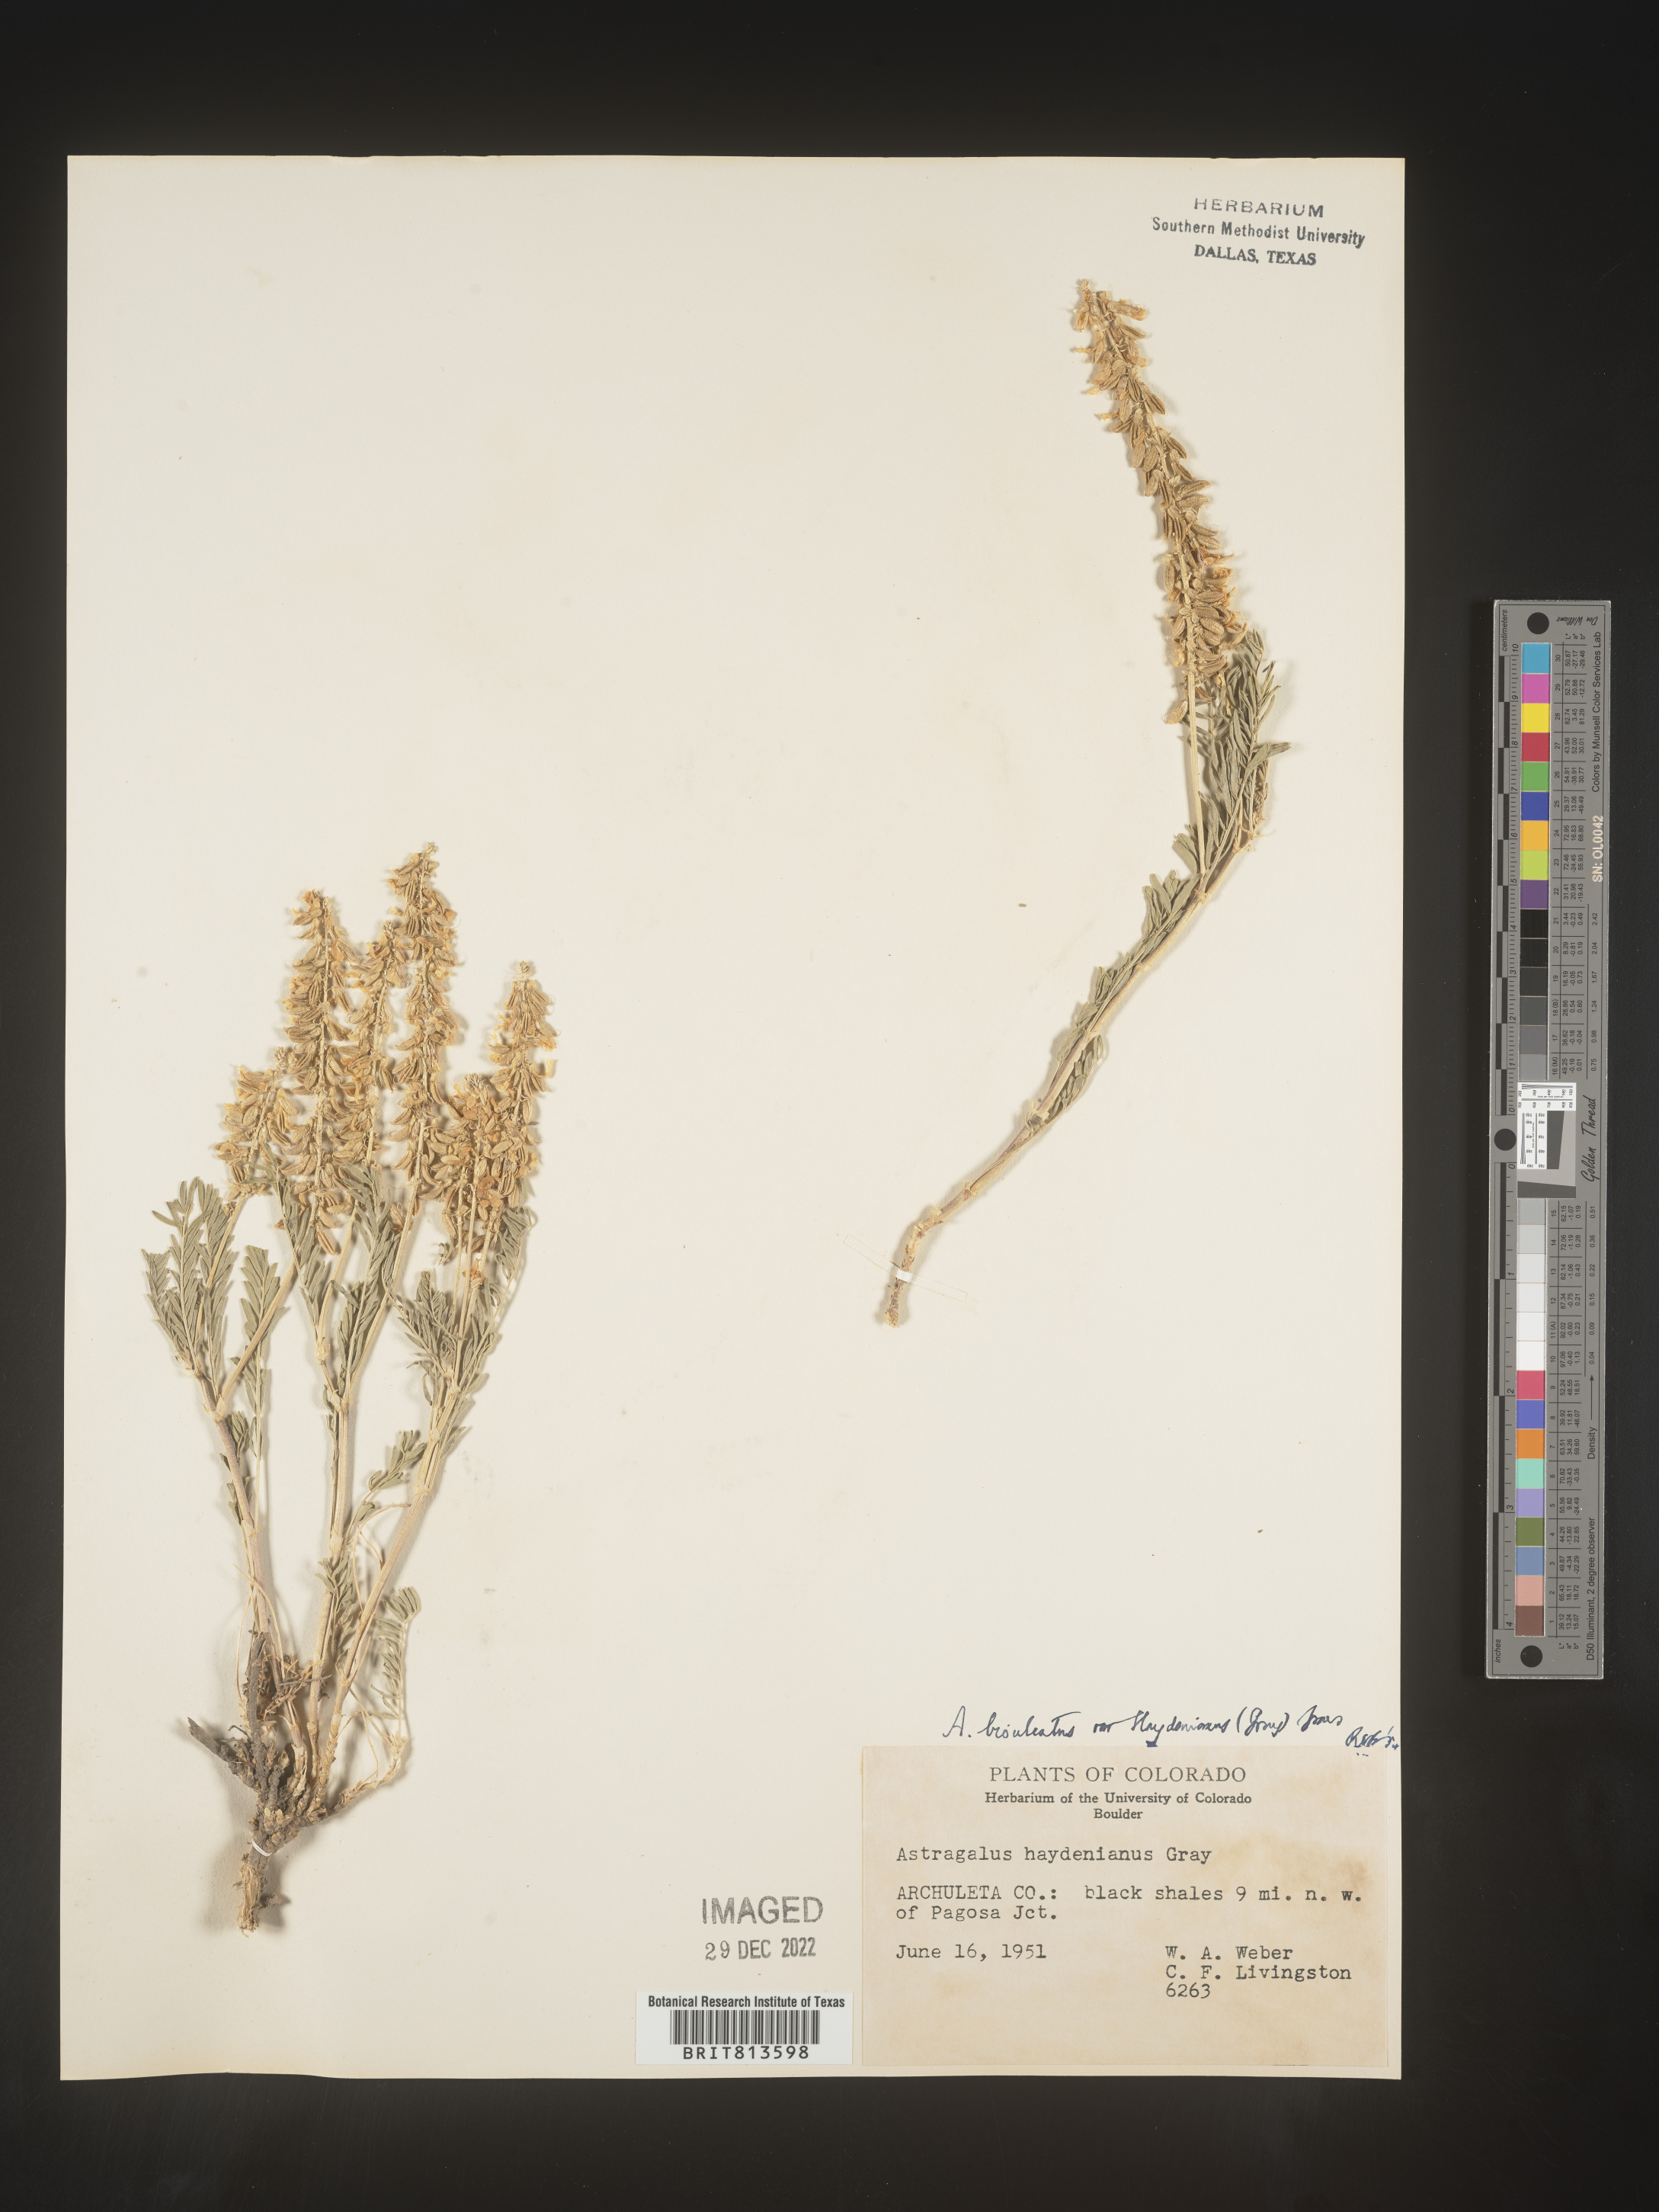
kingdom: Plantae
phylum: Tracheophyta
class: Magnoliopsida
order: Fabales
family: Fabaceae
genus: Astragalus
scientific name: Astragalus bisulcatus
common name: Two-groove milk-vetch
